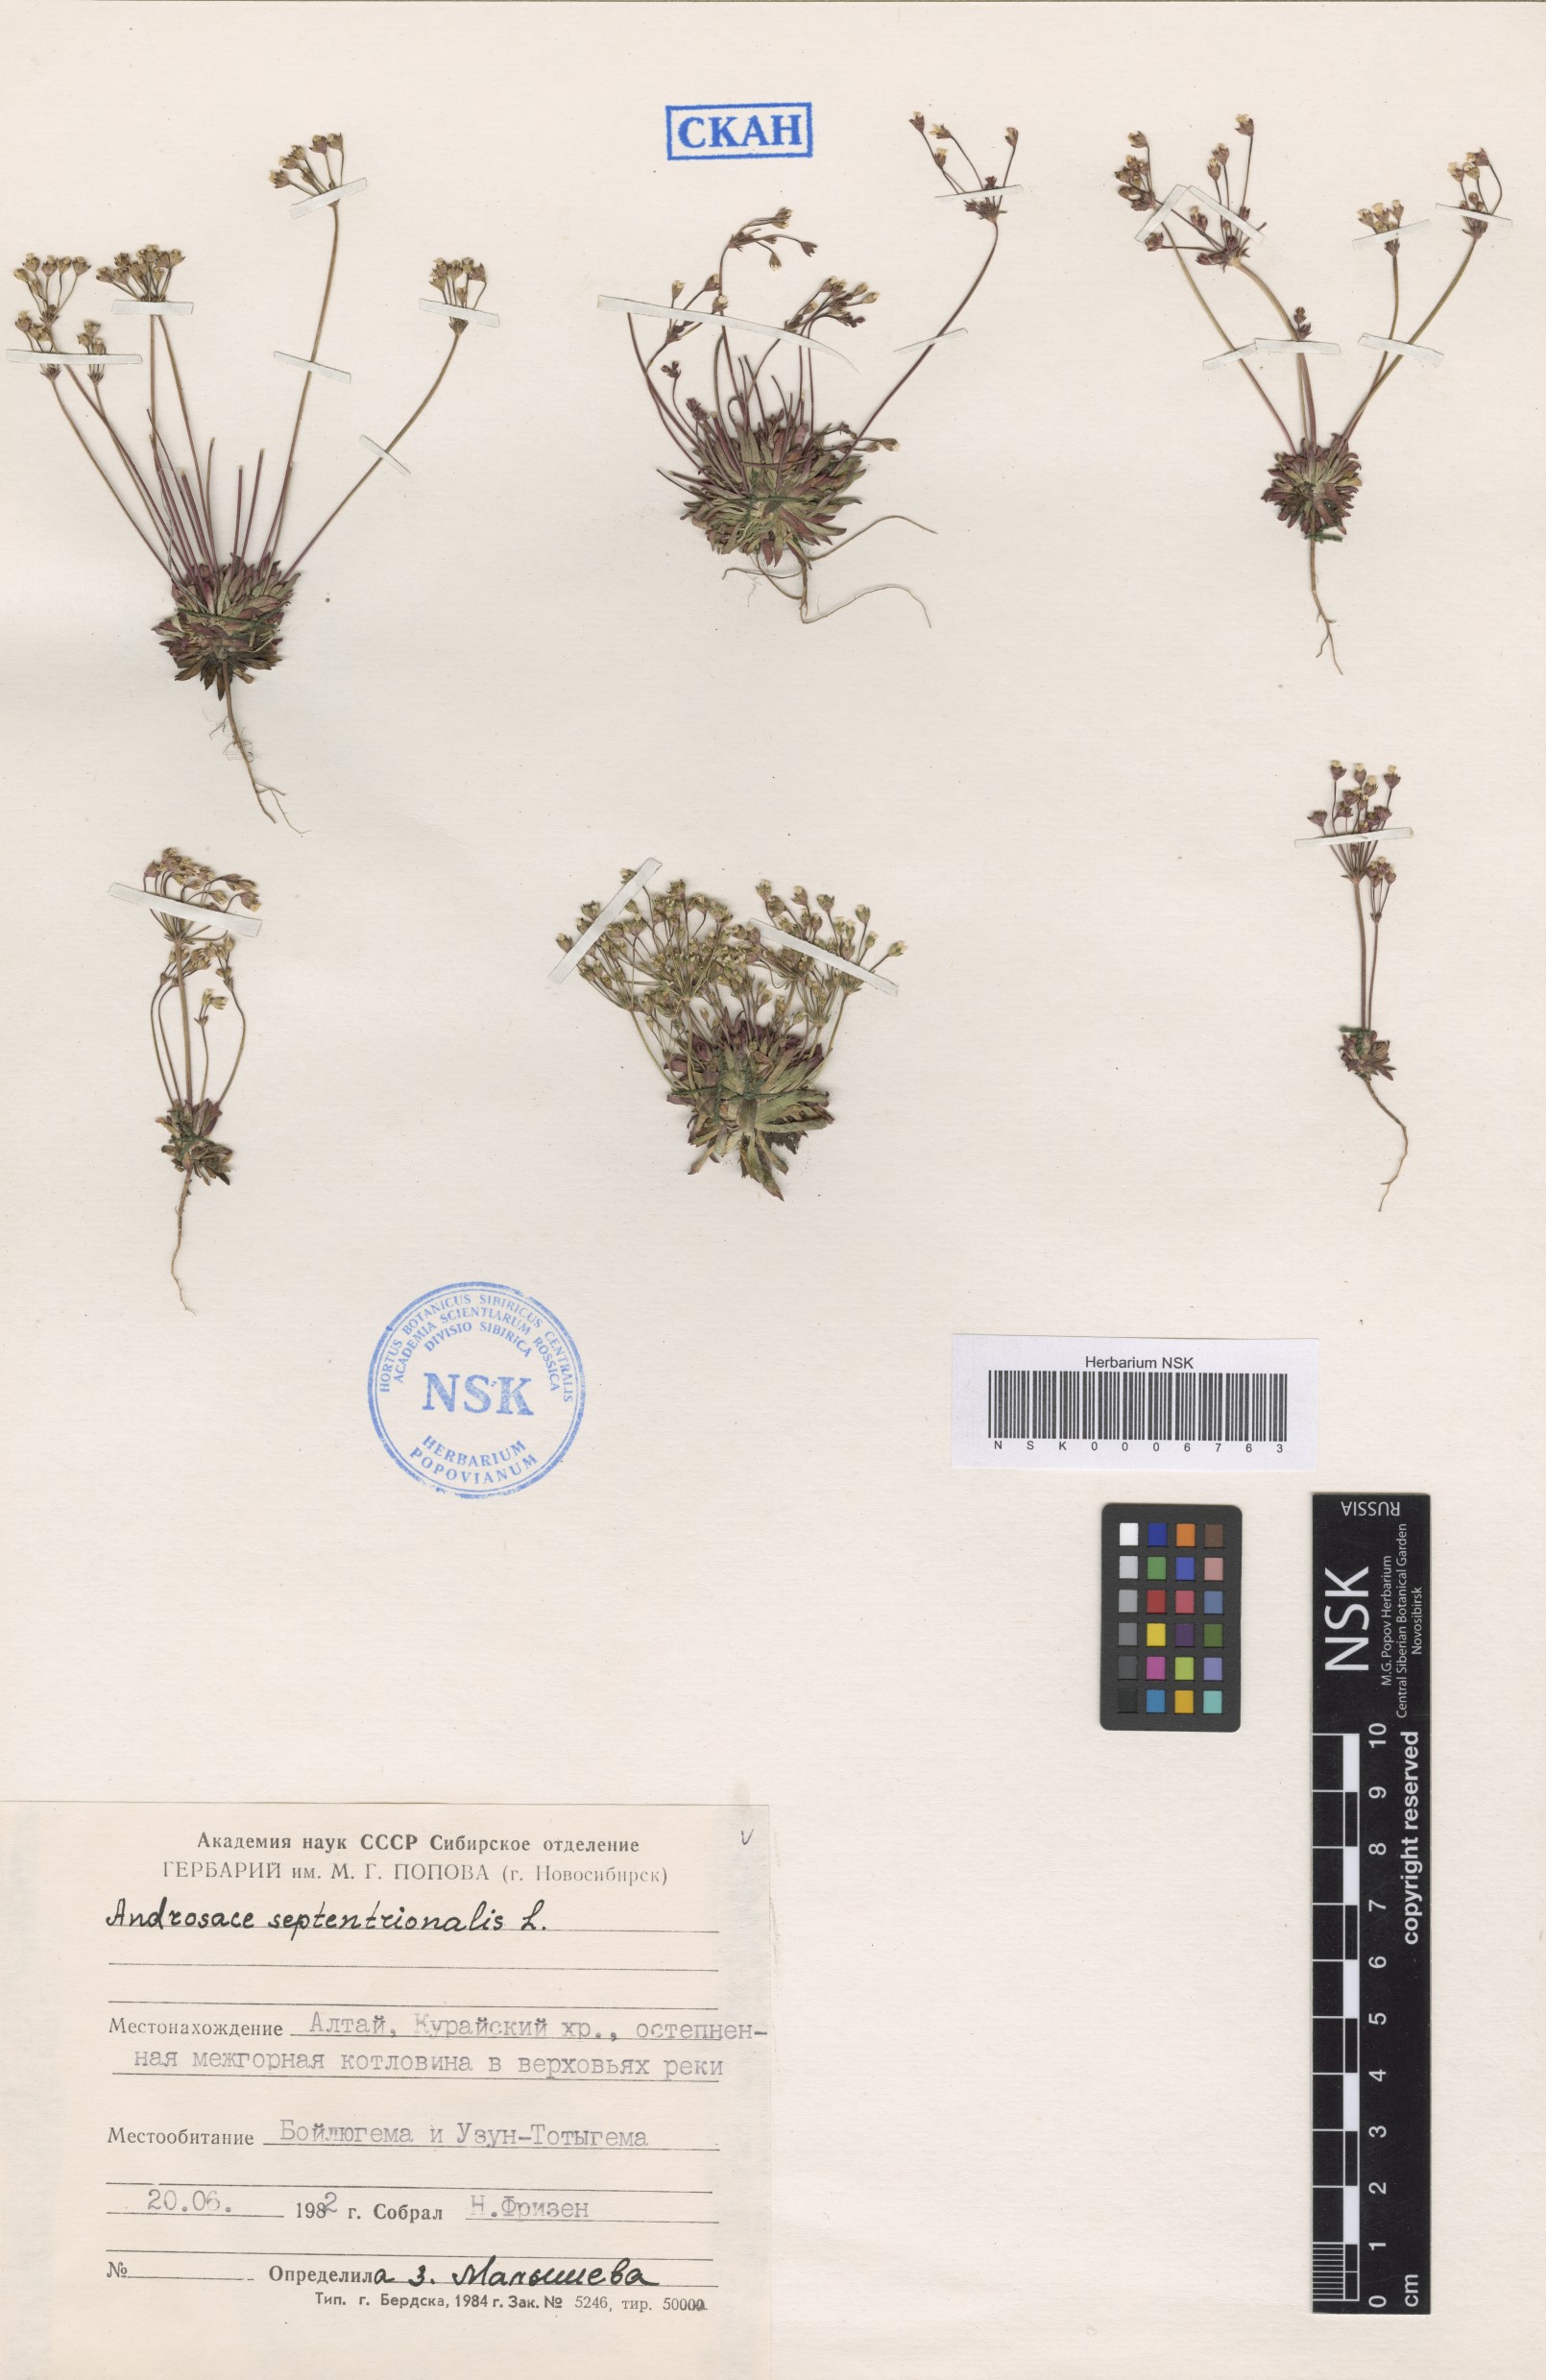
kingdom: Plantae
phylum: Tracheophyta
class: Magnoliopsida
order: Ericales
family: Primulaceae
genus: Androsace
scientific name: Androsace septentrionalis
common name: Hairy northern fairy-candelabra
